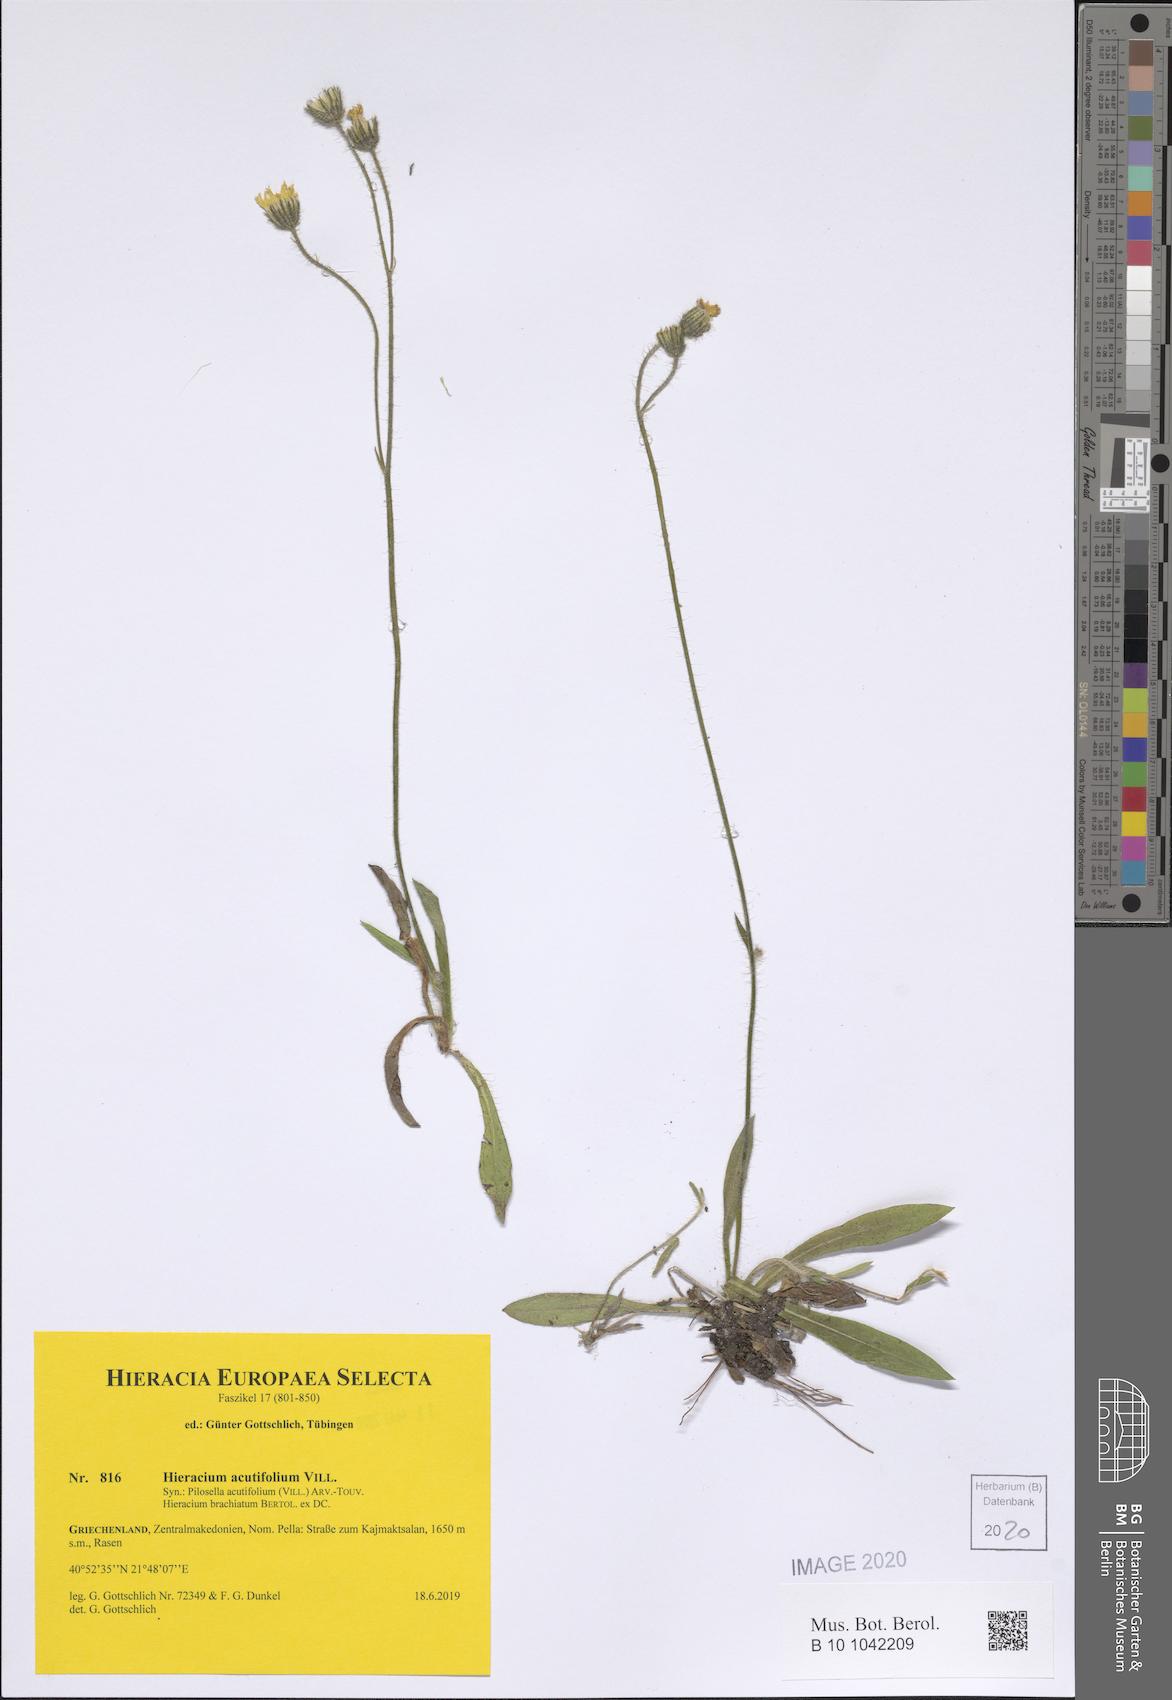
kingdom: Plantae
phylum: Tracheophyta
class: Magnoliopsida
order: Asterales
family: Asteraceae
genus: Pilosella
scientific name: Pilosella acutifolia
